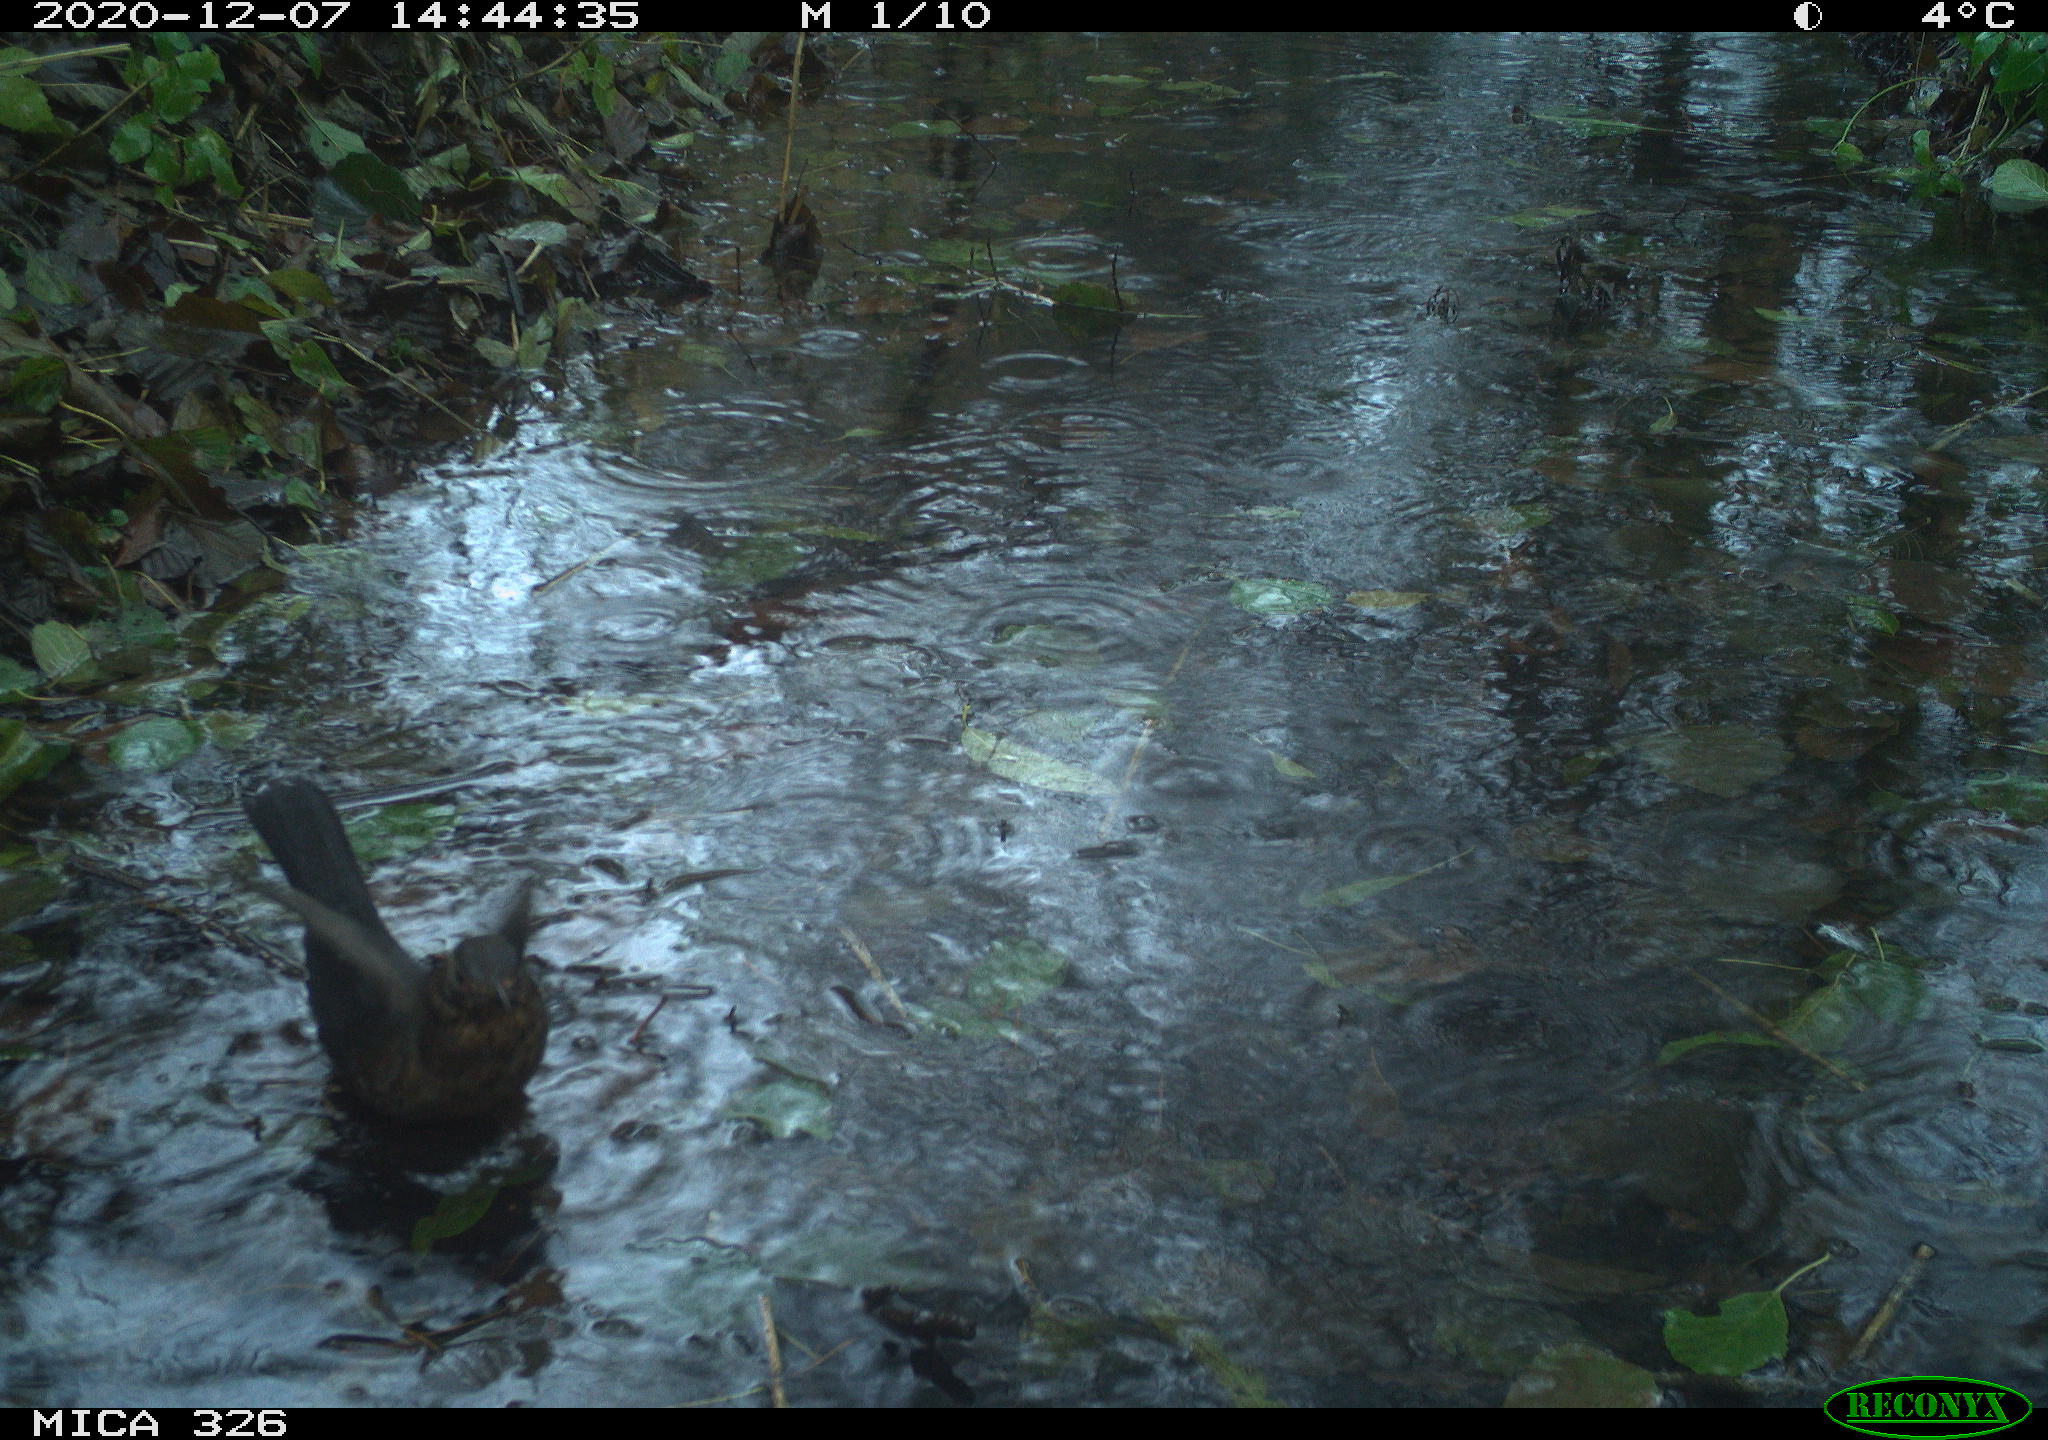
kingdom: Animalia
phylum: Chordata
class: Aves
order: Passeriformes
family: Turdidae
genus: Turdus
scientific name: Turdus philomelos
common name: Song thrush
